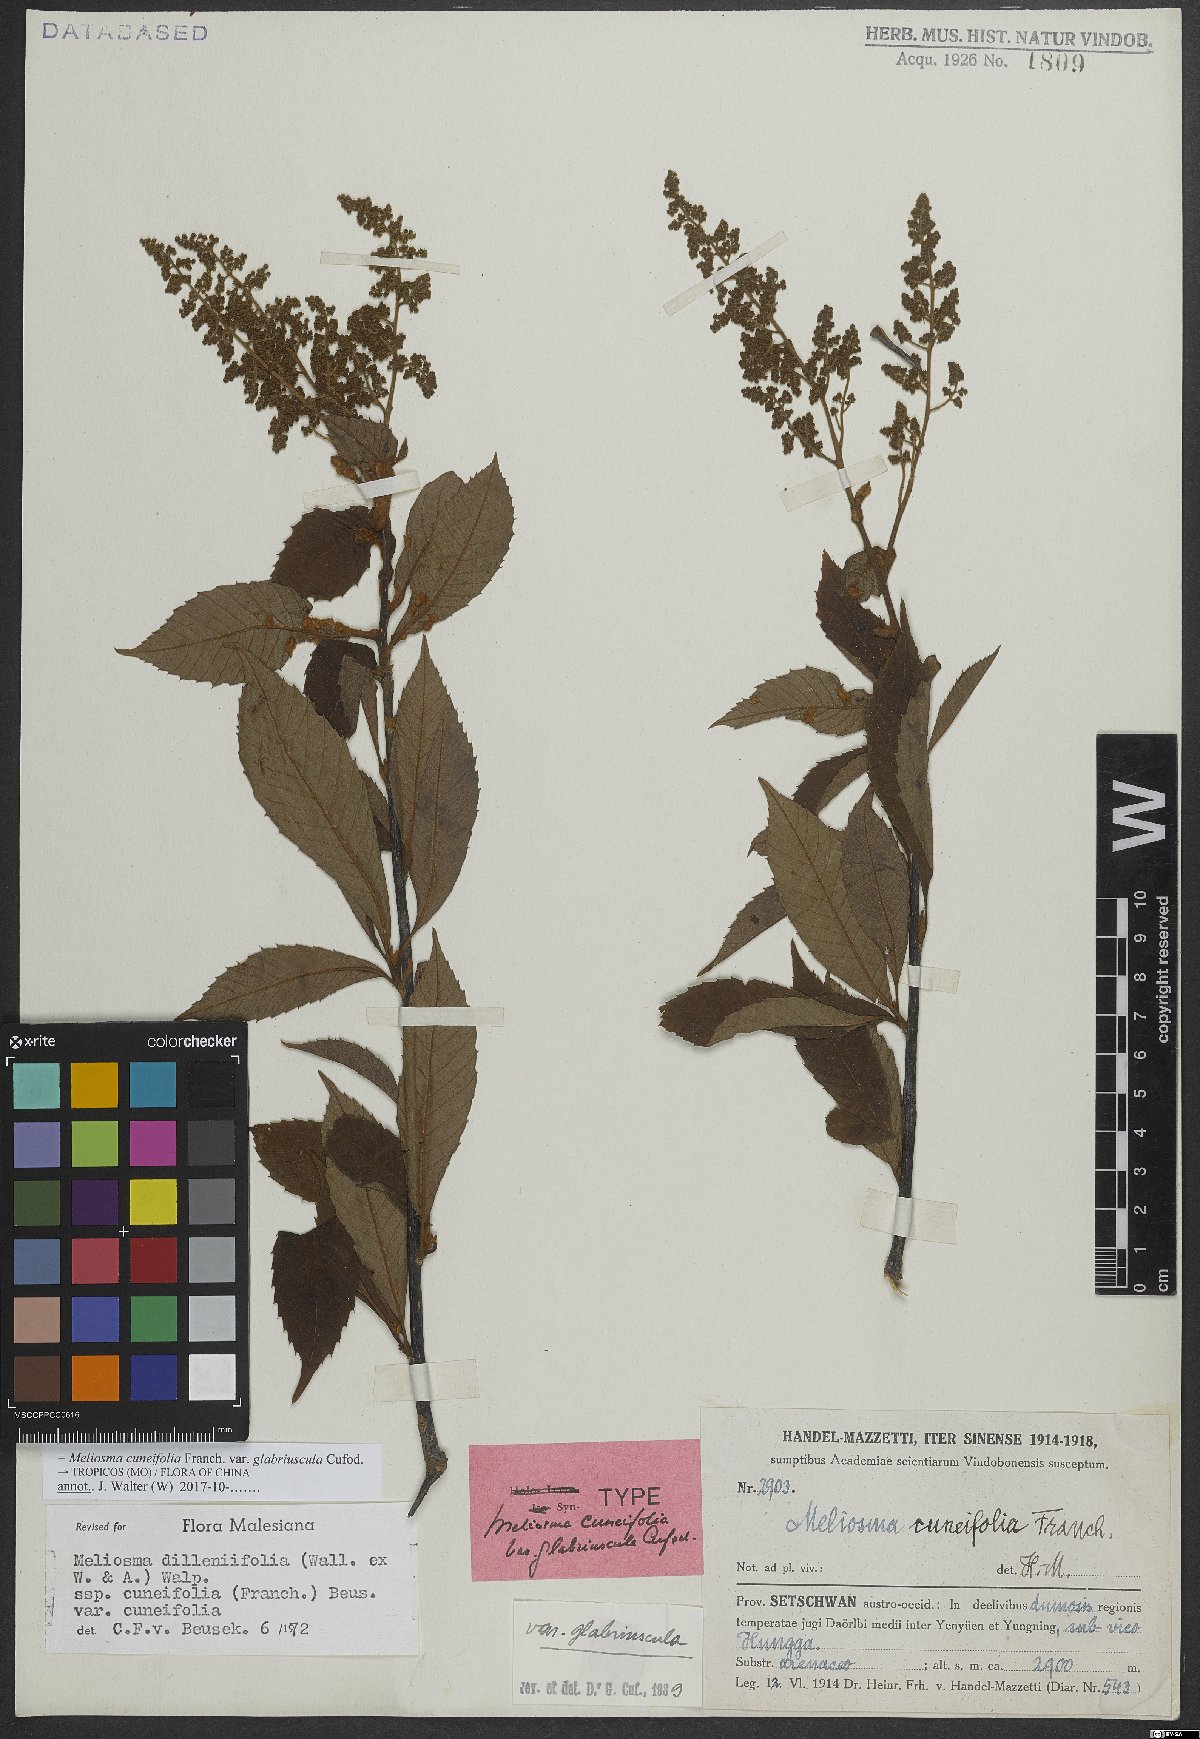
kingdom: Plantae
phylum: Tracheophyta
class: Magnoliopsida
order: Proteales
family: Sabiaceae
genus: Meliosma
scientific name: Meliosma cuneifolia
